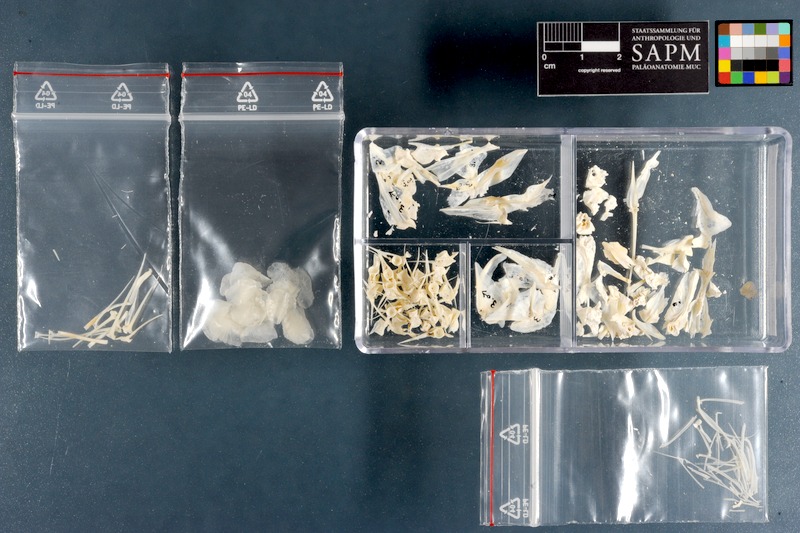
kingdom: Animalia
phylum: Chordata
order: Perciformes
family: Mullidae
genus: Pseudupeneus
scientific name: Pseudupeneus prayensis
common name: West african goatfish
